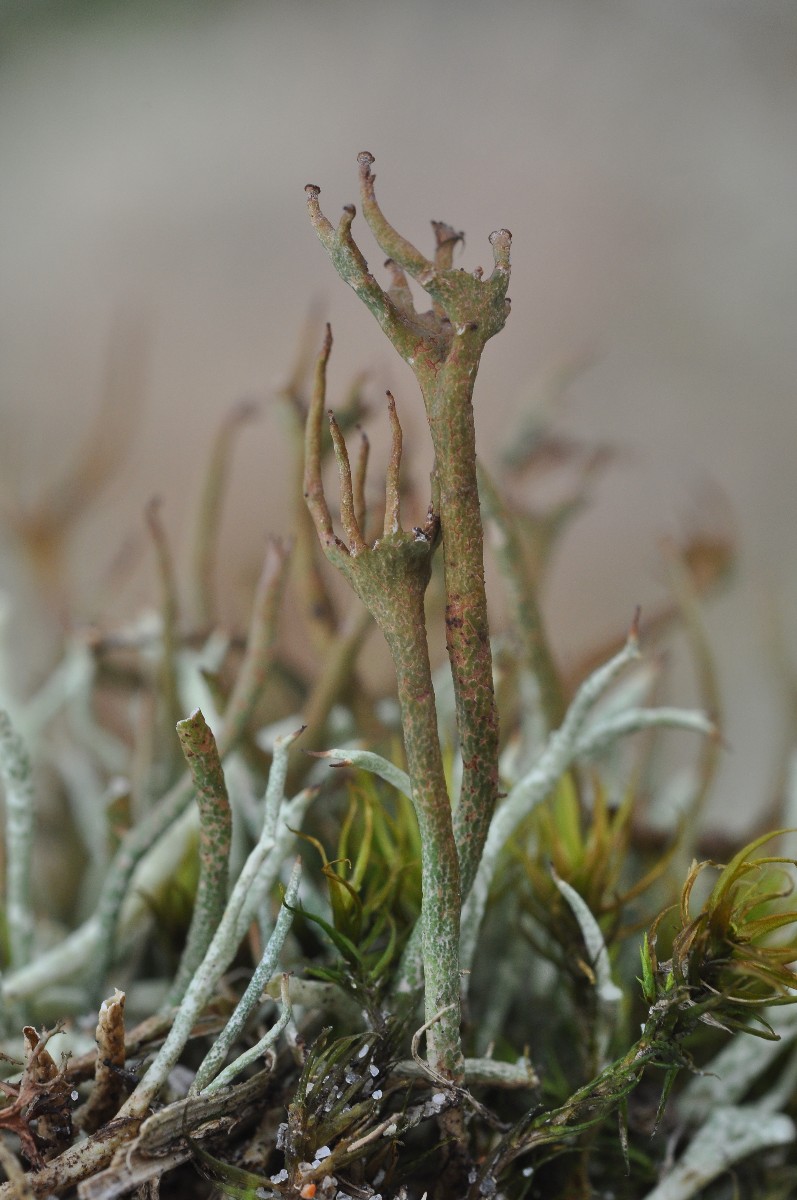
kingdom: Fungi
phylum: Ascomycota
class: Lecanoromycetes
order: Lecanorales
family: Cladoniaceae
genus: Cladonia
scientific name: Cladonia gracilis
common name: slank bægerlav
